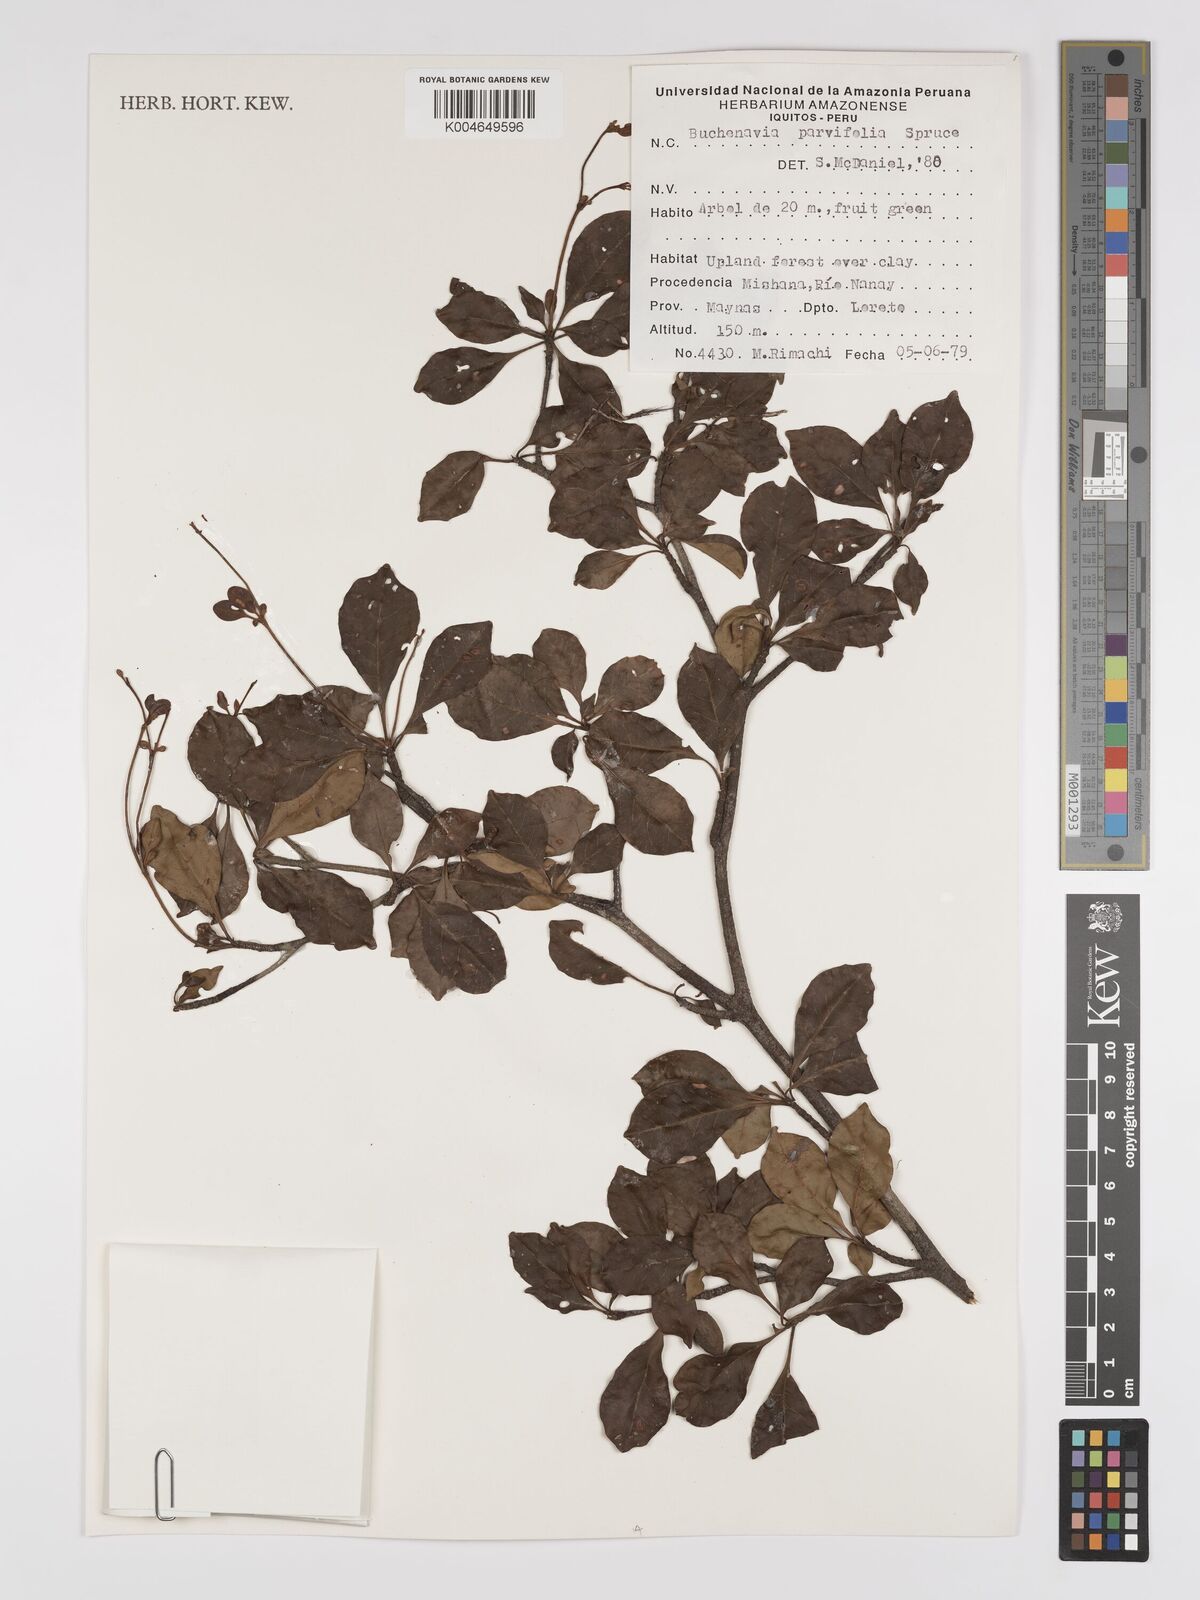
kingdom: Plantae
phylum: Tracheophyta
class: Magnoliopsida
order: Myrtales
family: Combretaceae
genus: Terminalia
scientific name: Terminalia parvifolia
